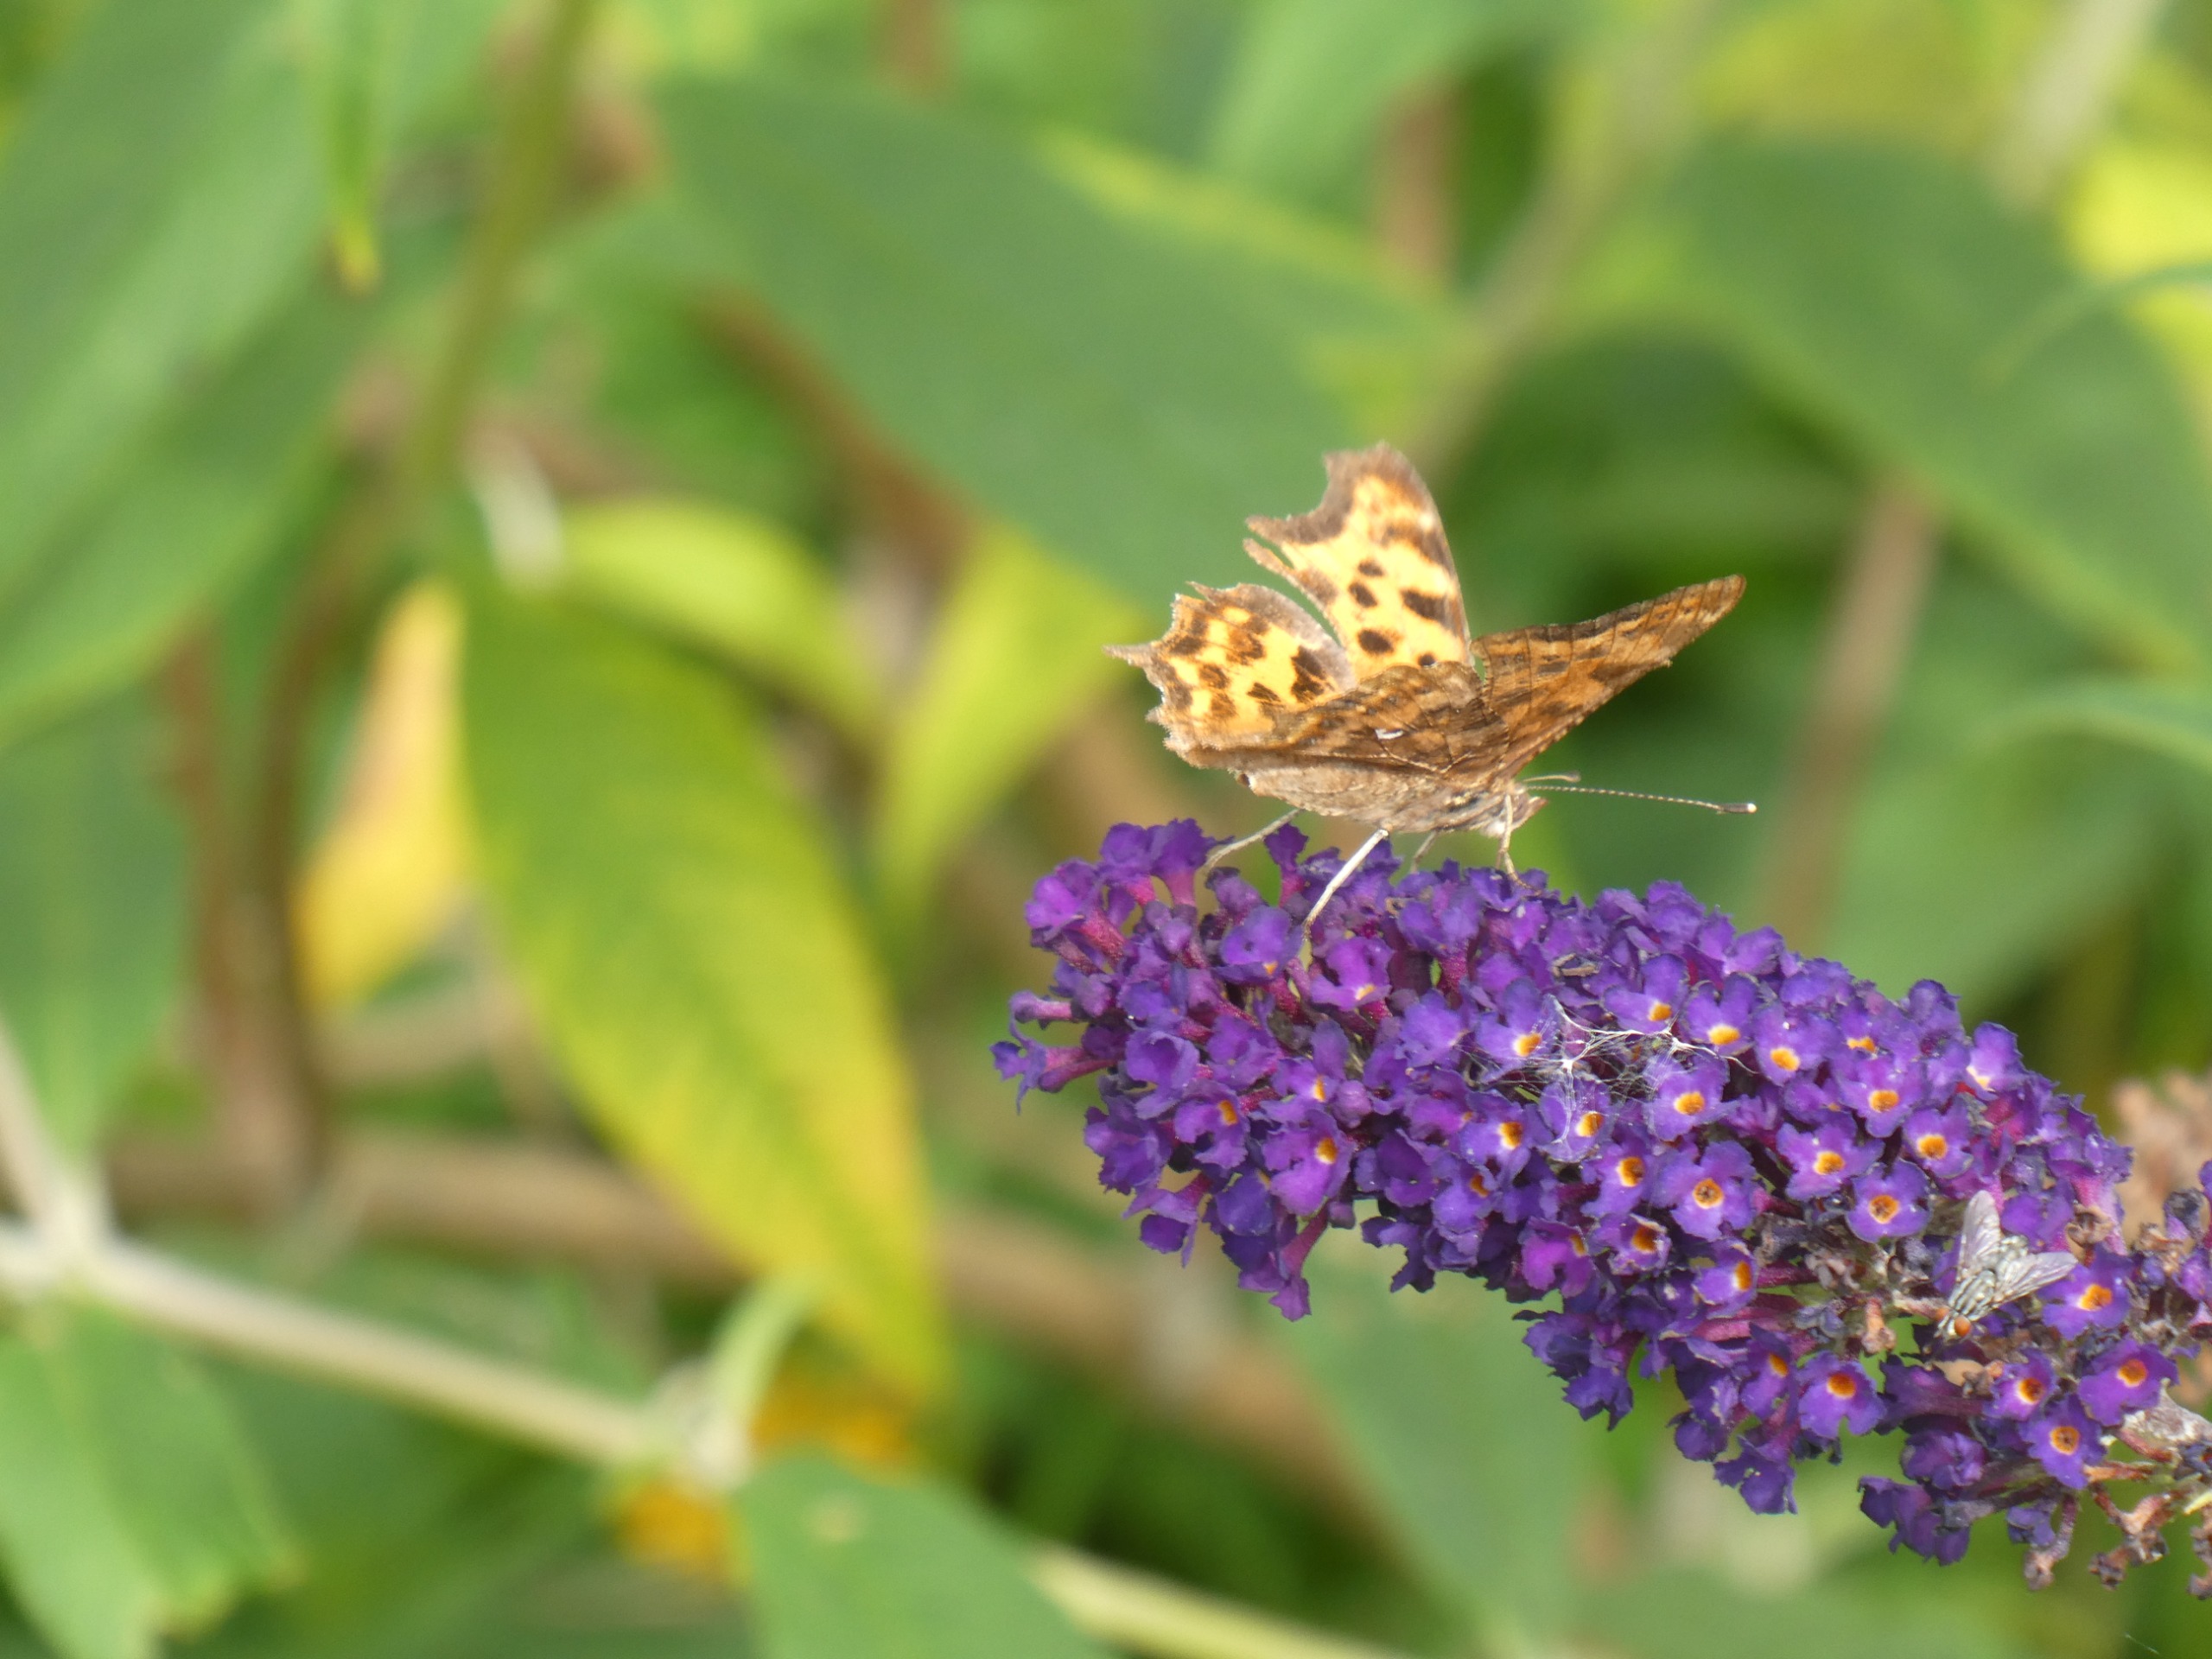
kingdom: Animalia
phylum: Arthropoda
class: Insecta
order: Lepidoptera
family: Nymphalidae
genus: Polygonia
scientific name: Polygonia c-album
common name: Det hvide C
